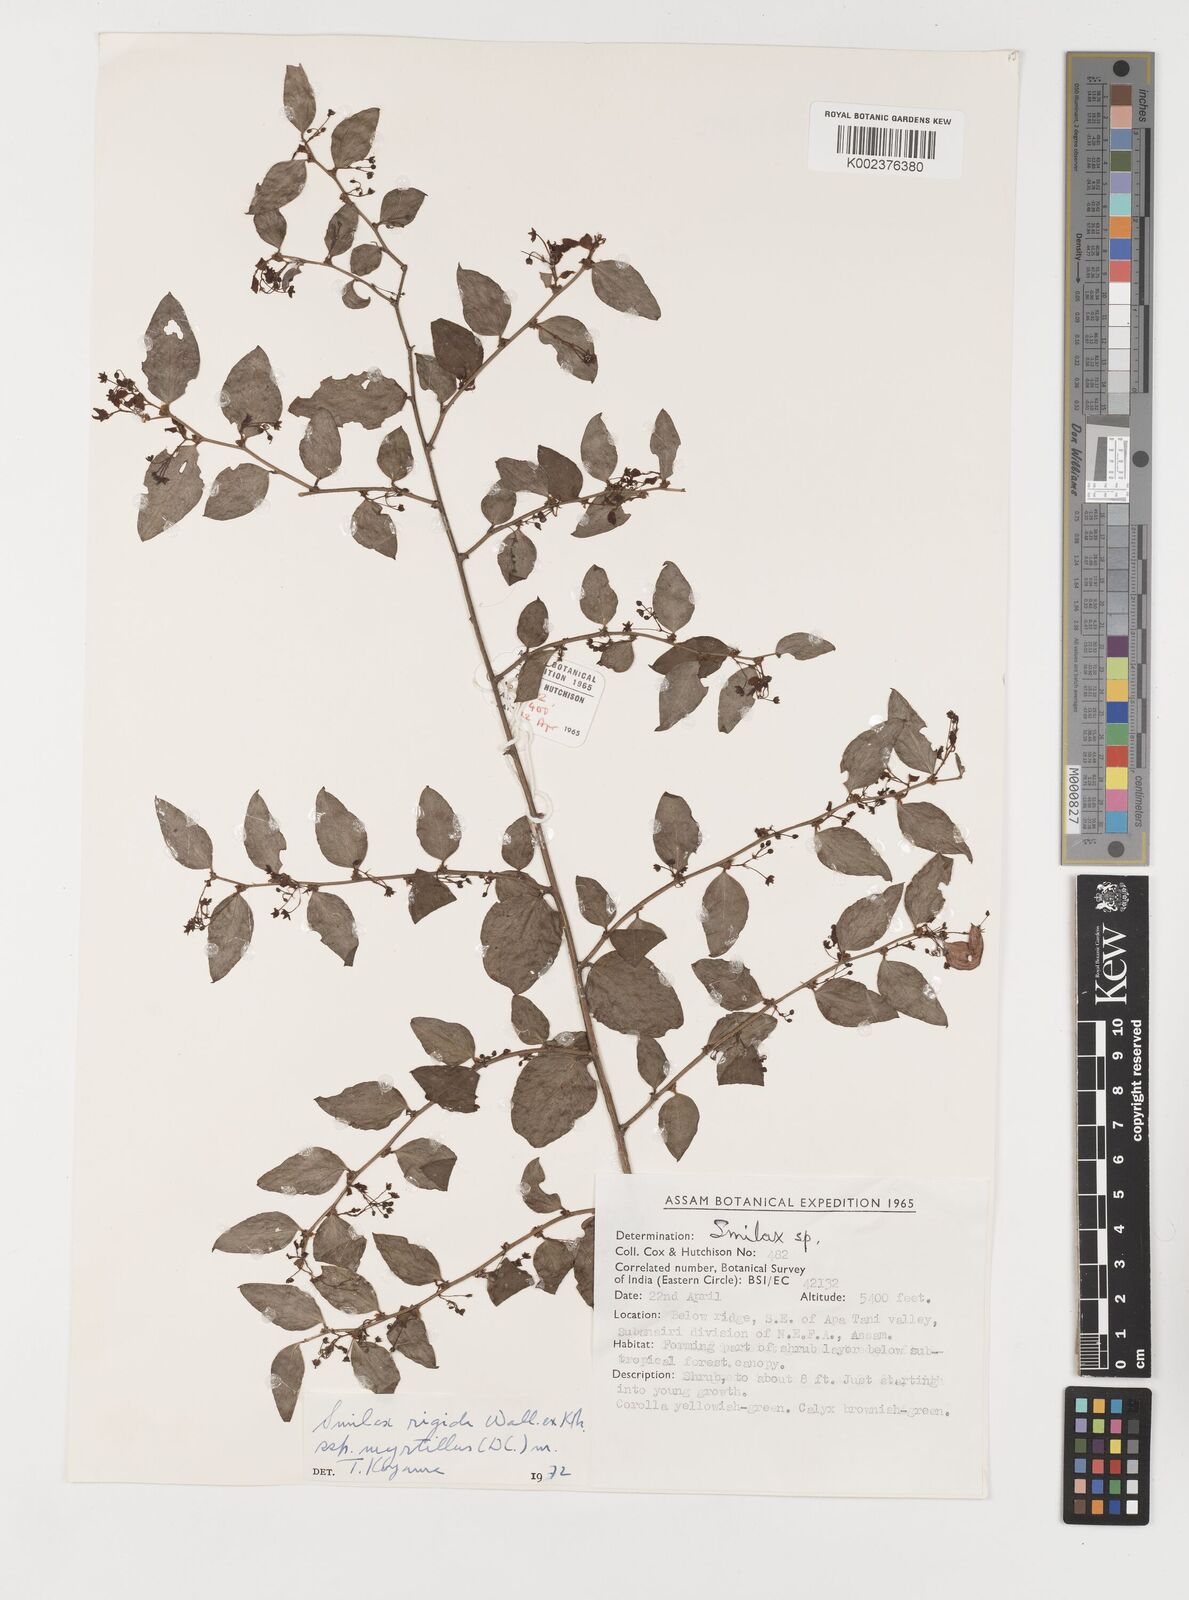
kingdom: Plantae
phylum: Tracheophyta
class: Liliopsida
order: Liliales
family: Smilacaceae
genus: Smilax
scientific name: Smilax myrtillus
